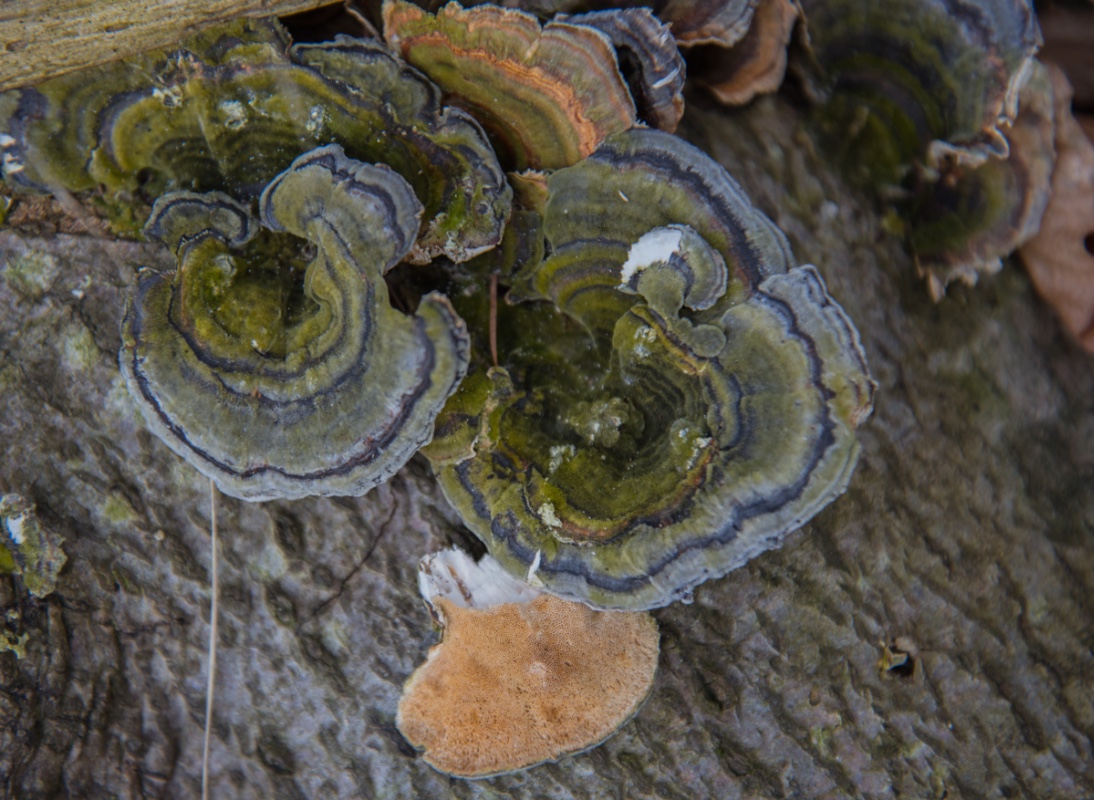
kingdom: Fungi
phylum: Basidiomycota
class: Agaricomycetes
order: Polyporales
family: Polyporaceae
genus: Trametes
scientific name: Trametes versicolor
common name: broget læderporesvamp
